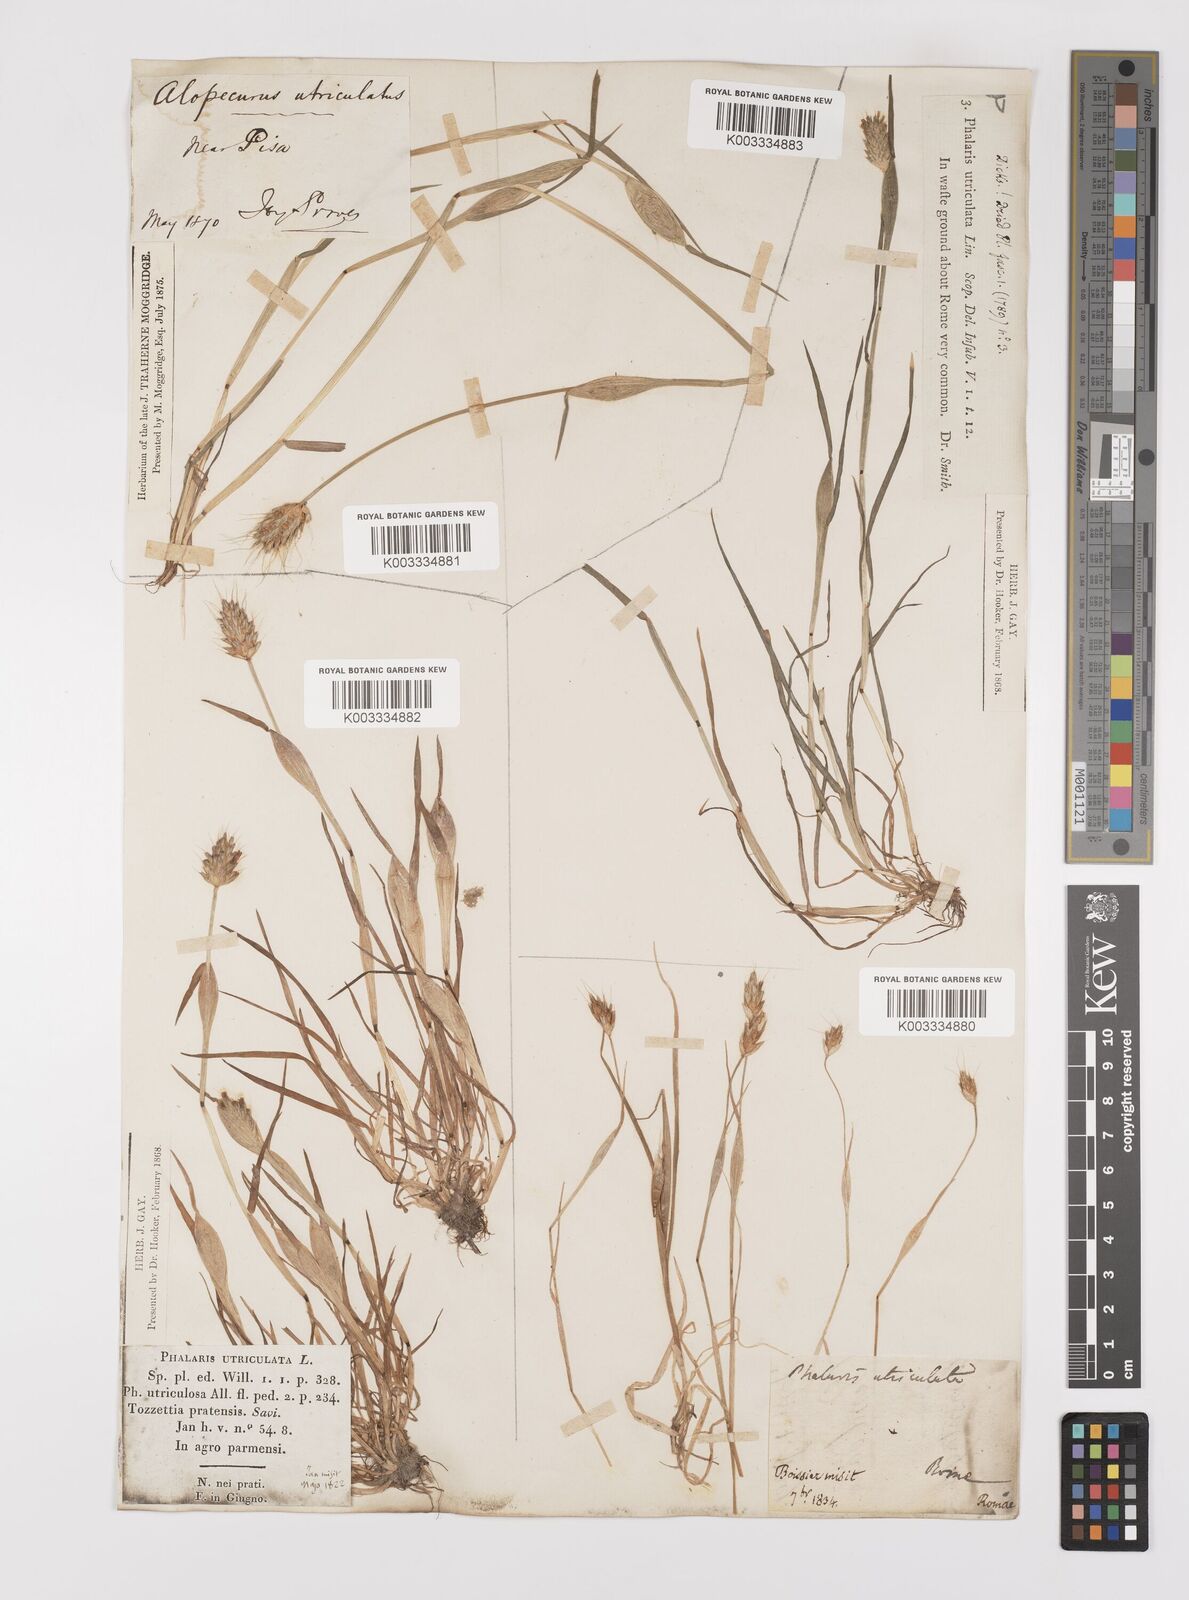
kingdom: Plantae
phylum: Tracheophyta
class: Liliopsida
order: Poales
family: Poaceae
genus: Alopecurus
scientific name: Alopecurus rendlei
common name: Rendle's meadow foxtail
